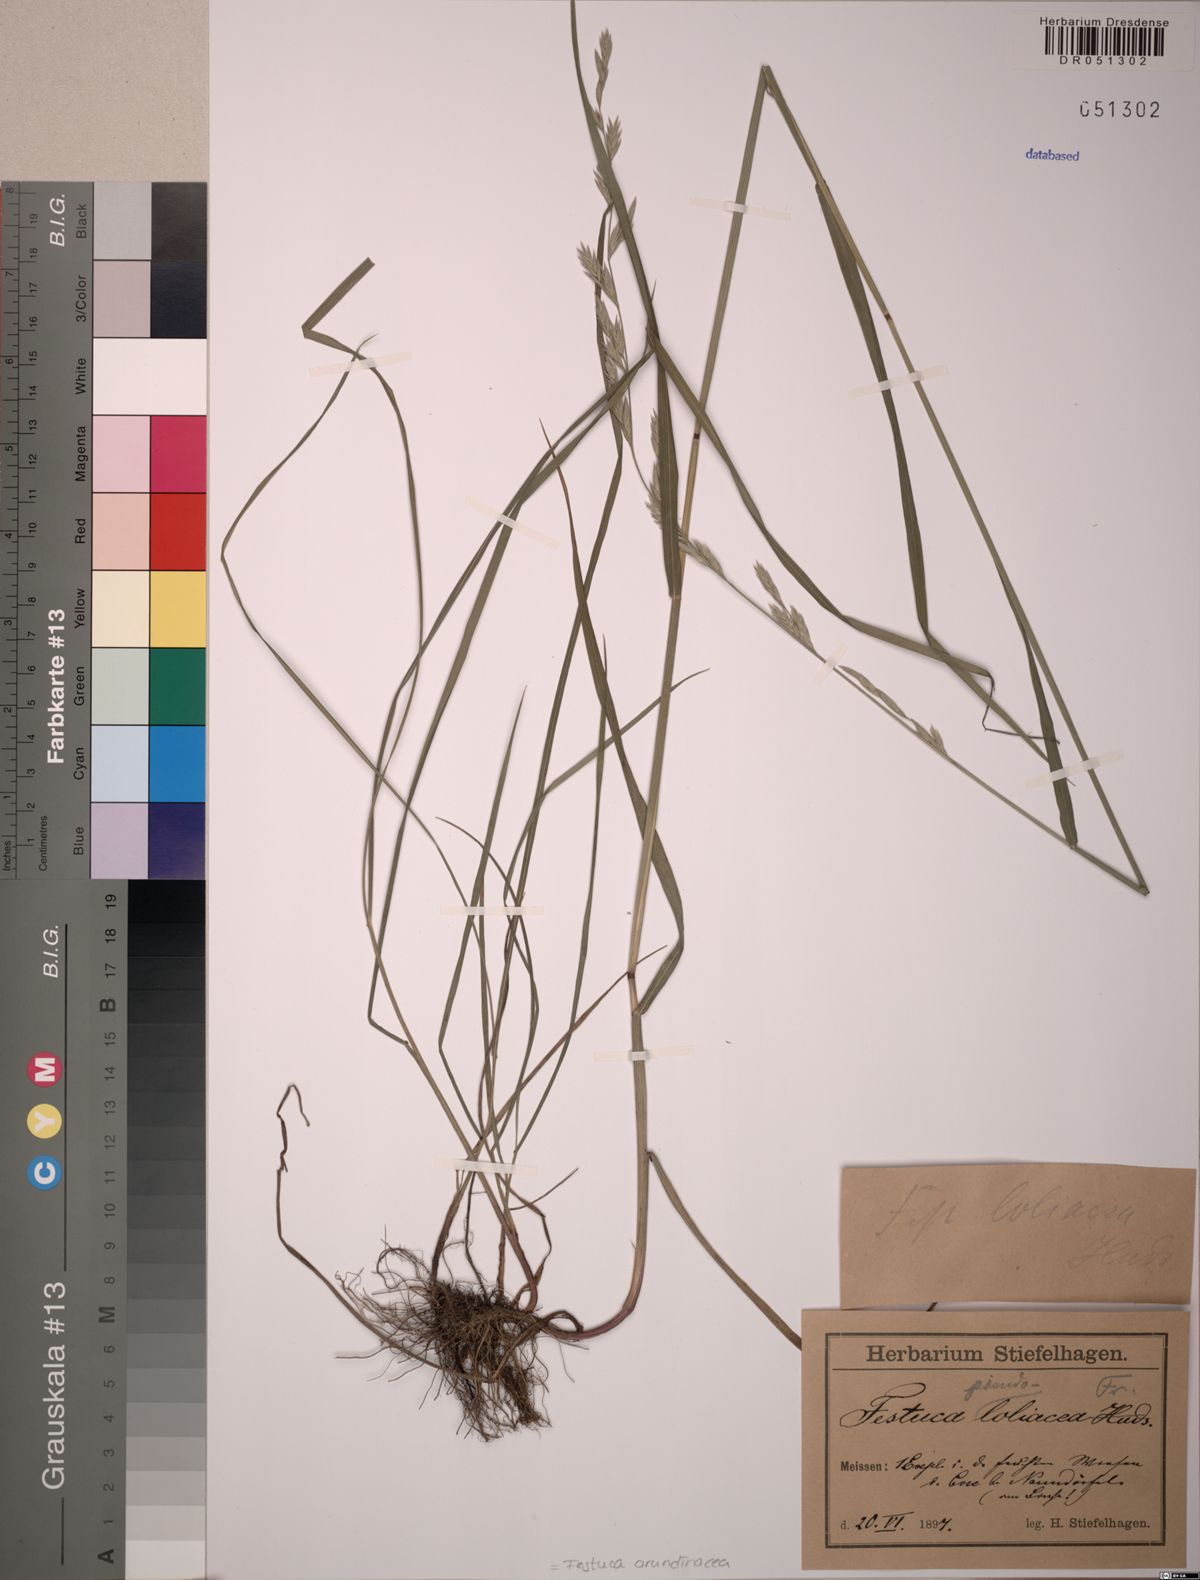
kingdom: Plantae
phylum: Tracheophyta
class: Liliopsida
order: Poales
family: Poaceae
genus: Lolium
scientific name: Lolium arundinaceum
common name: Reed fescue
